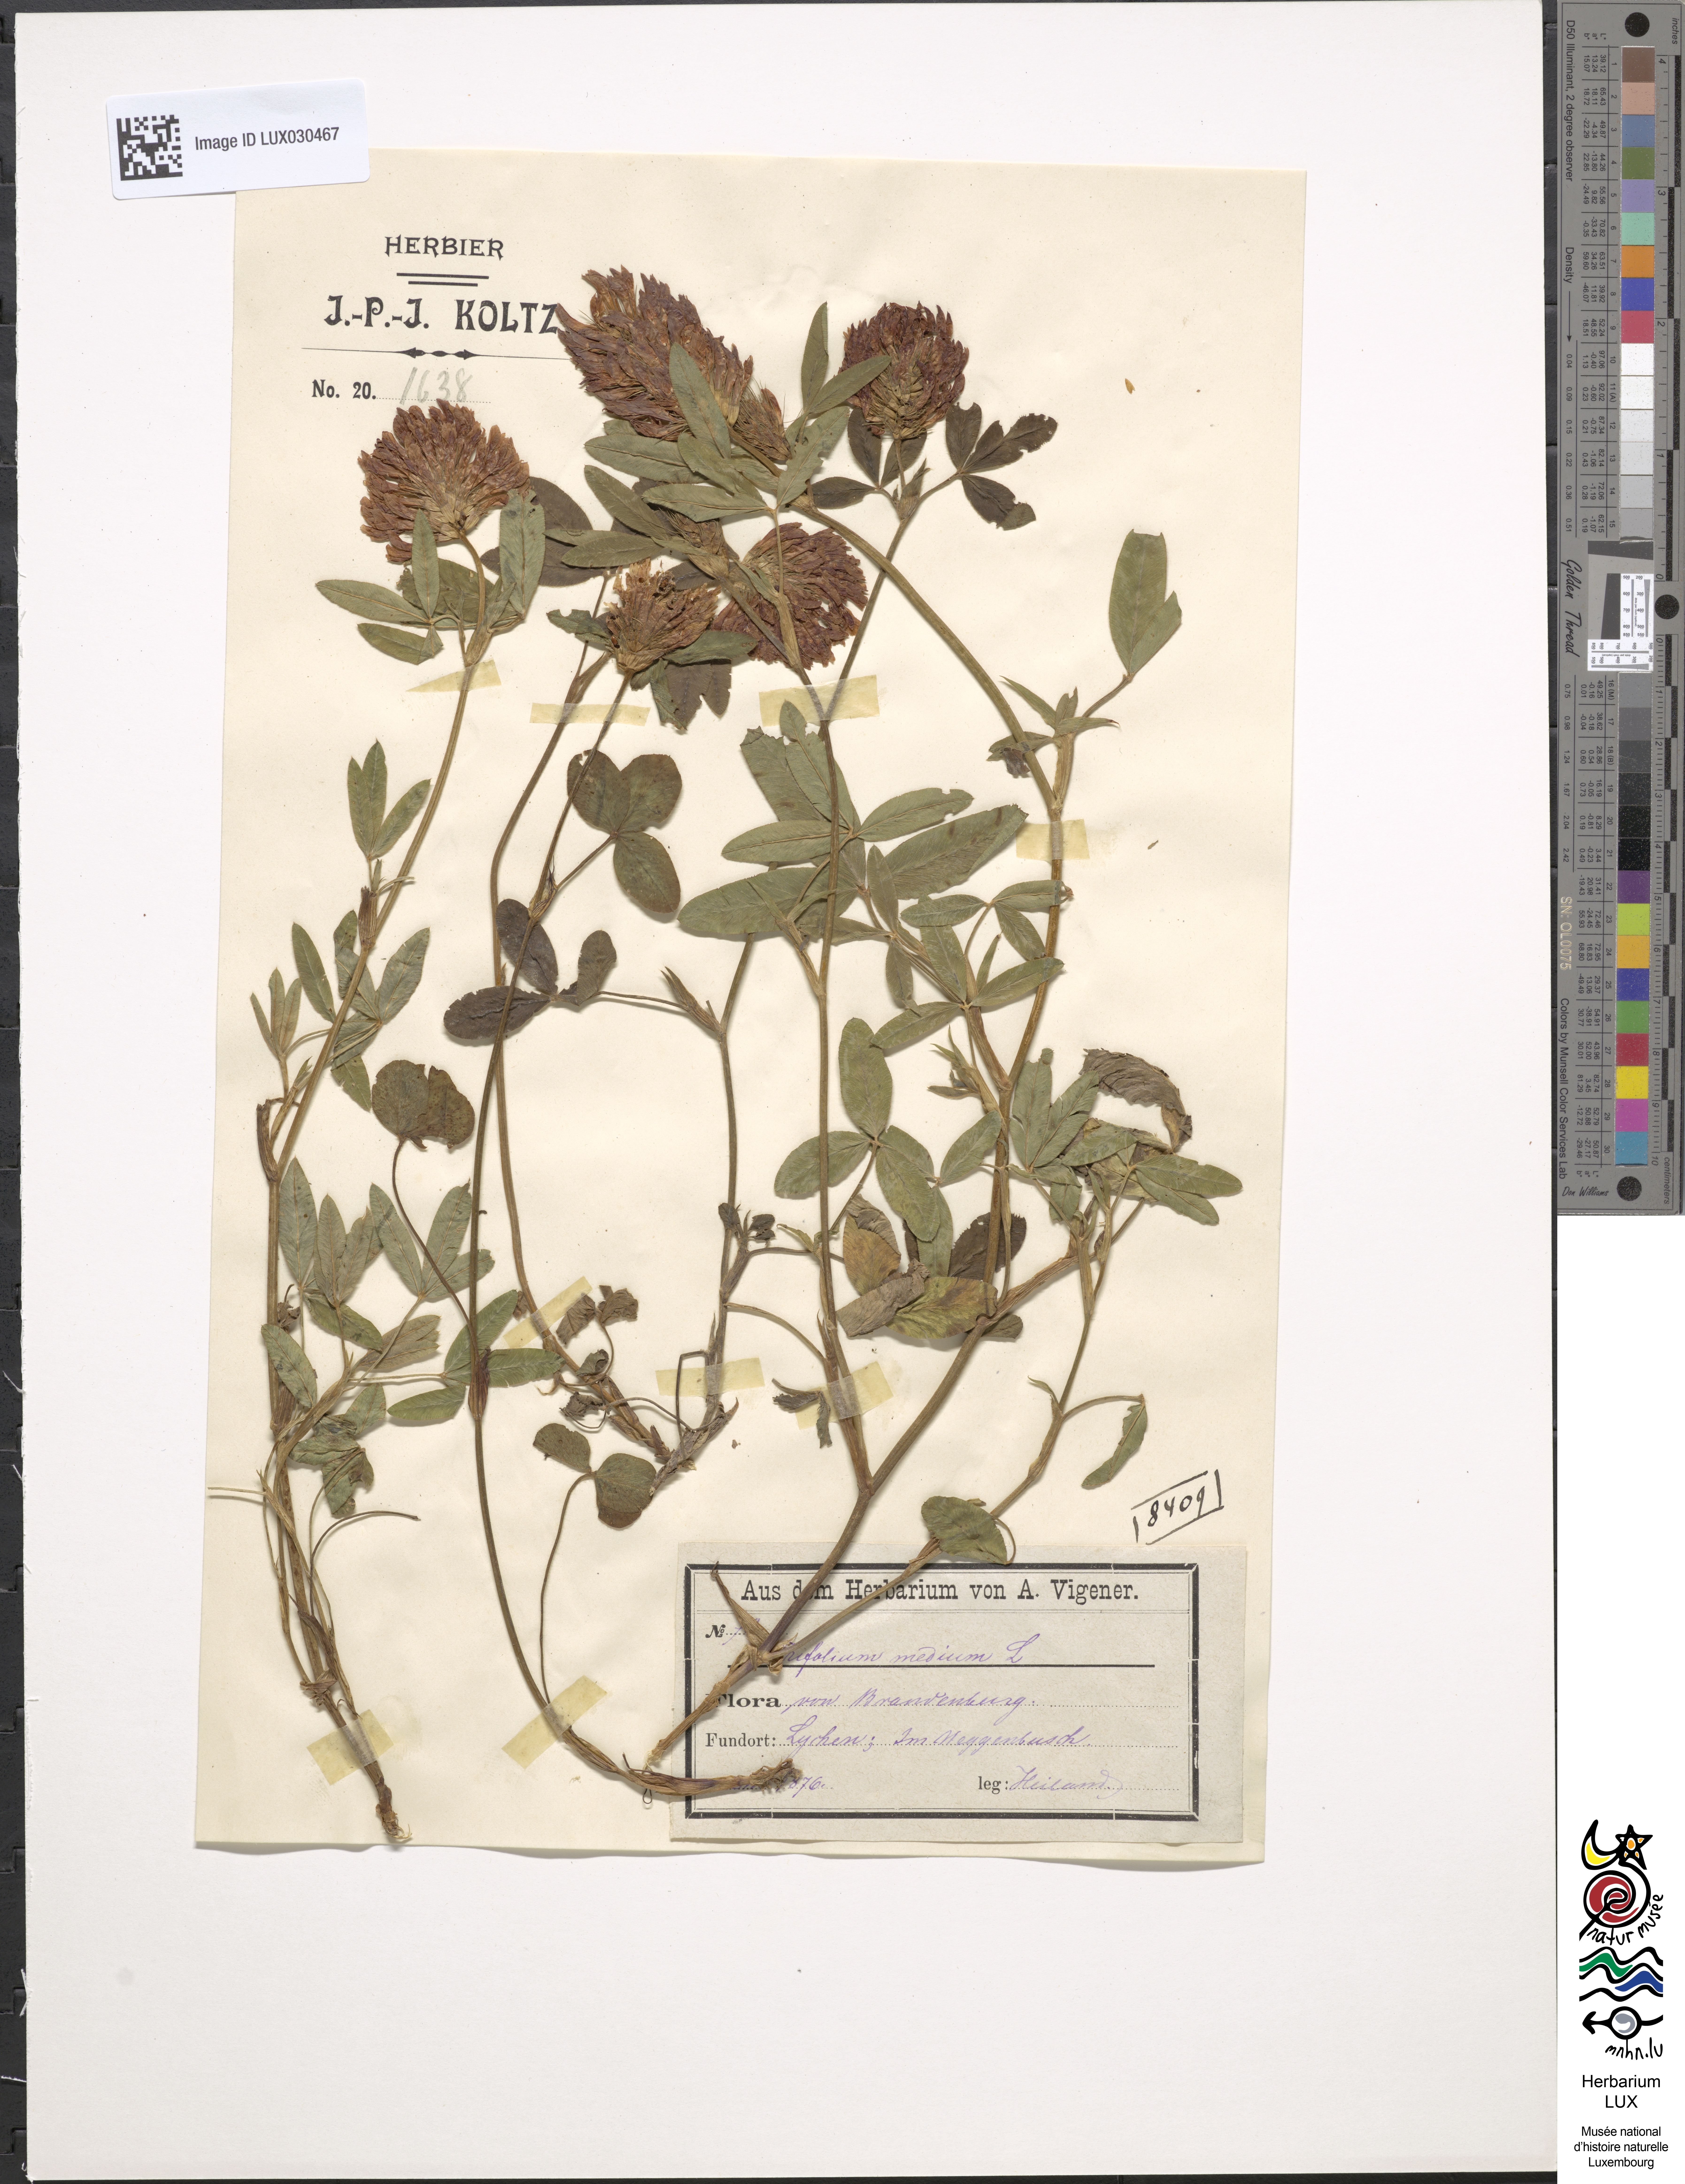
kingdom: Plantae
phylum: Tracheophyta
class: Magnoliopsida
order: Fabales
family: Fabaceae
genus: Trifolium
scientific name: Trifolium medium
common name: Zigzag clover
